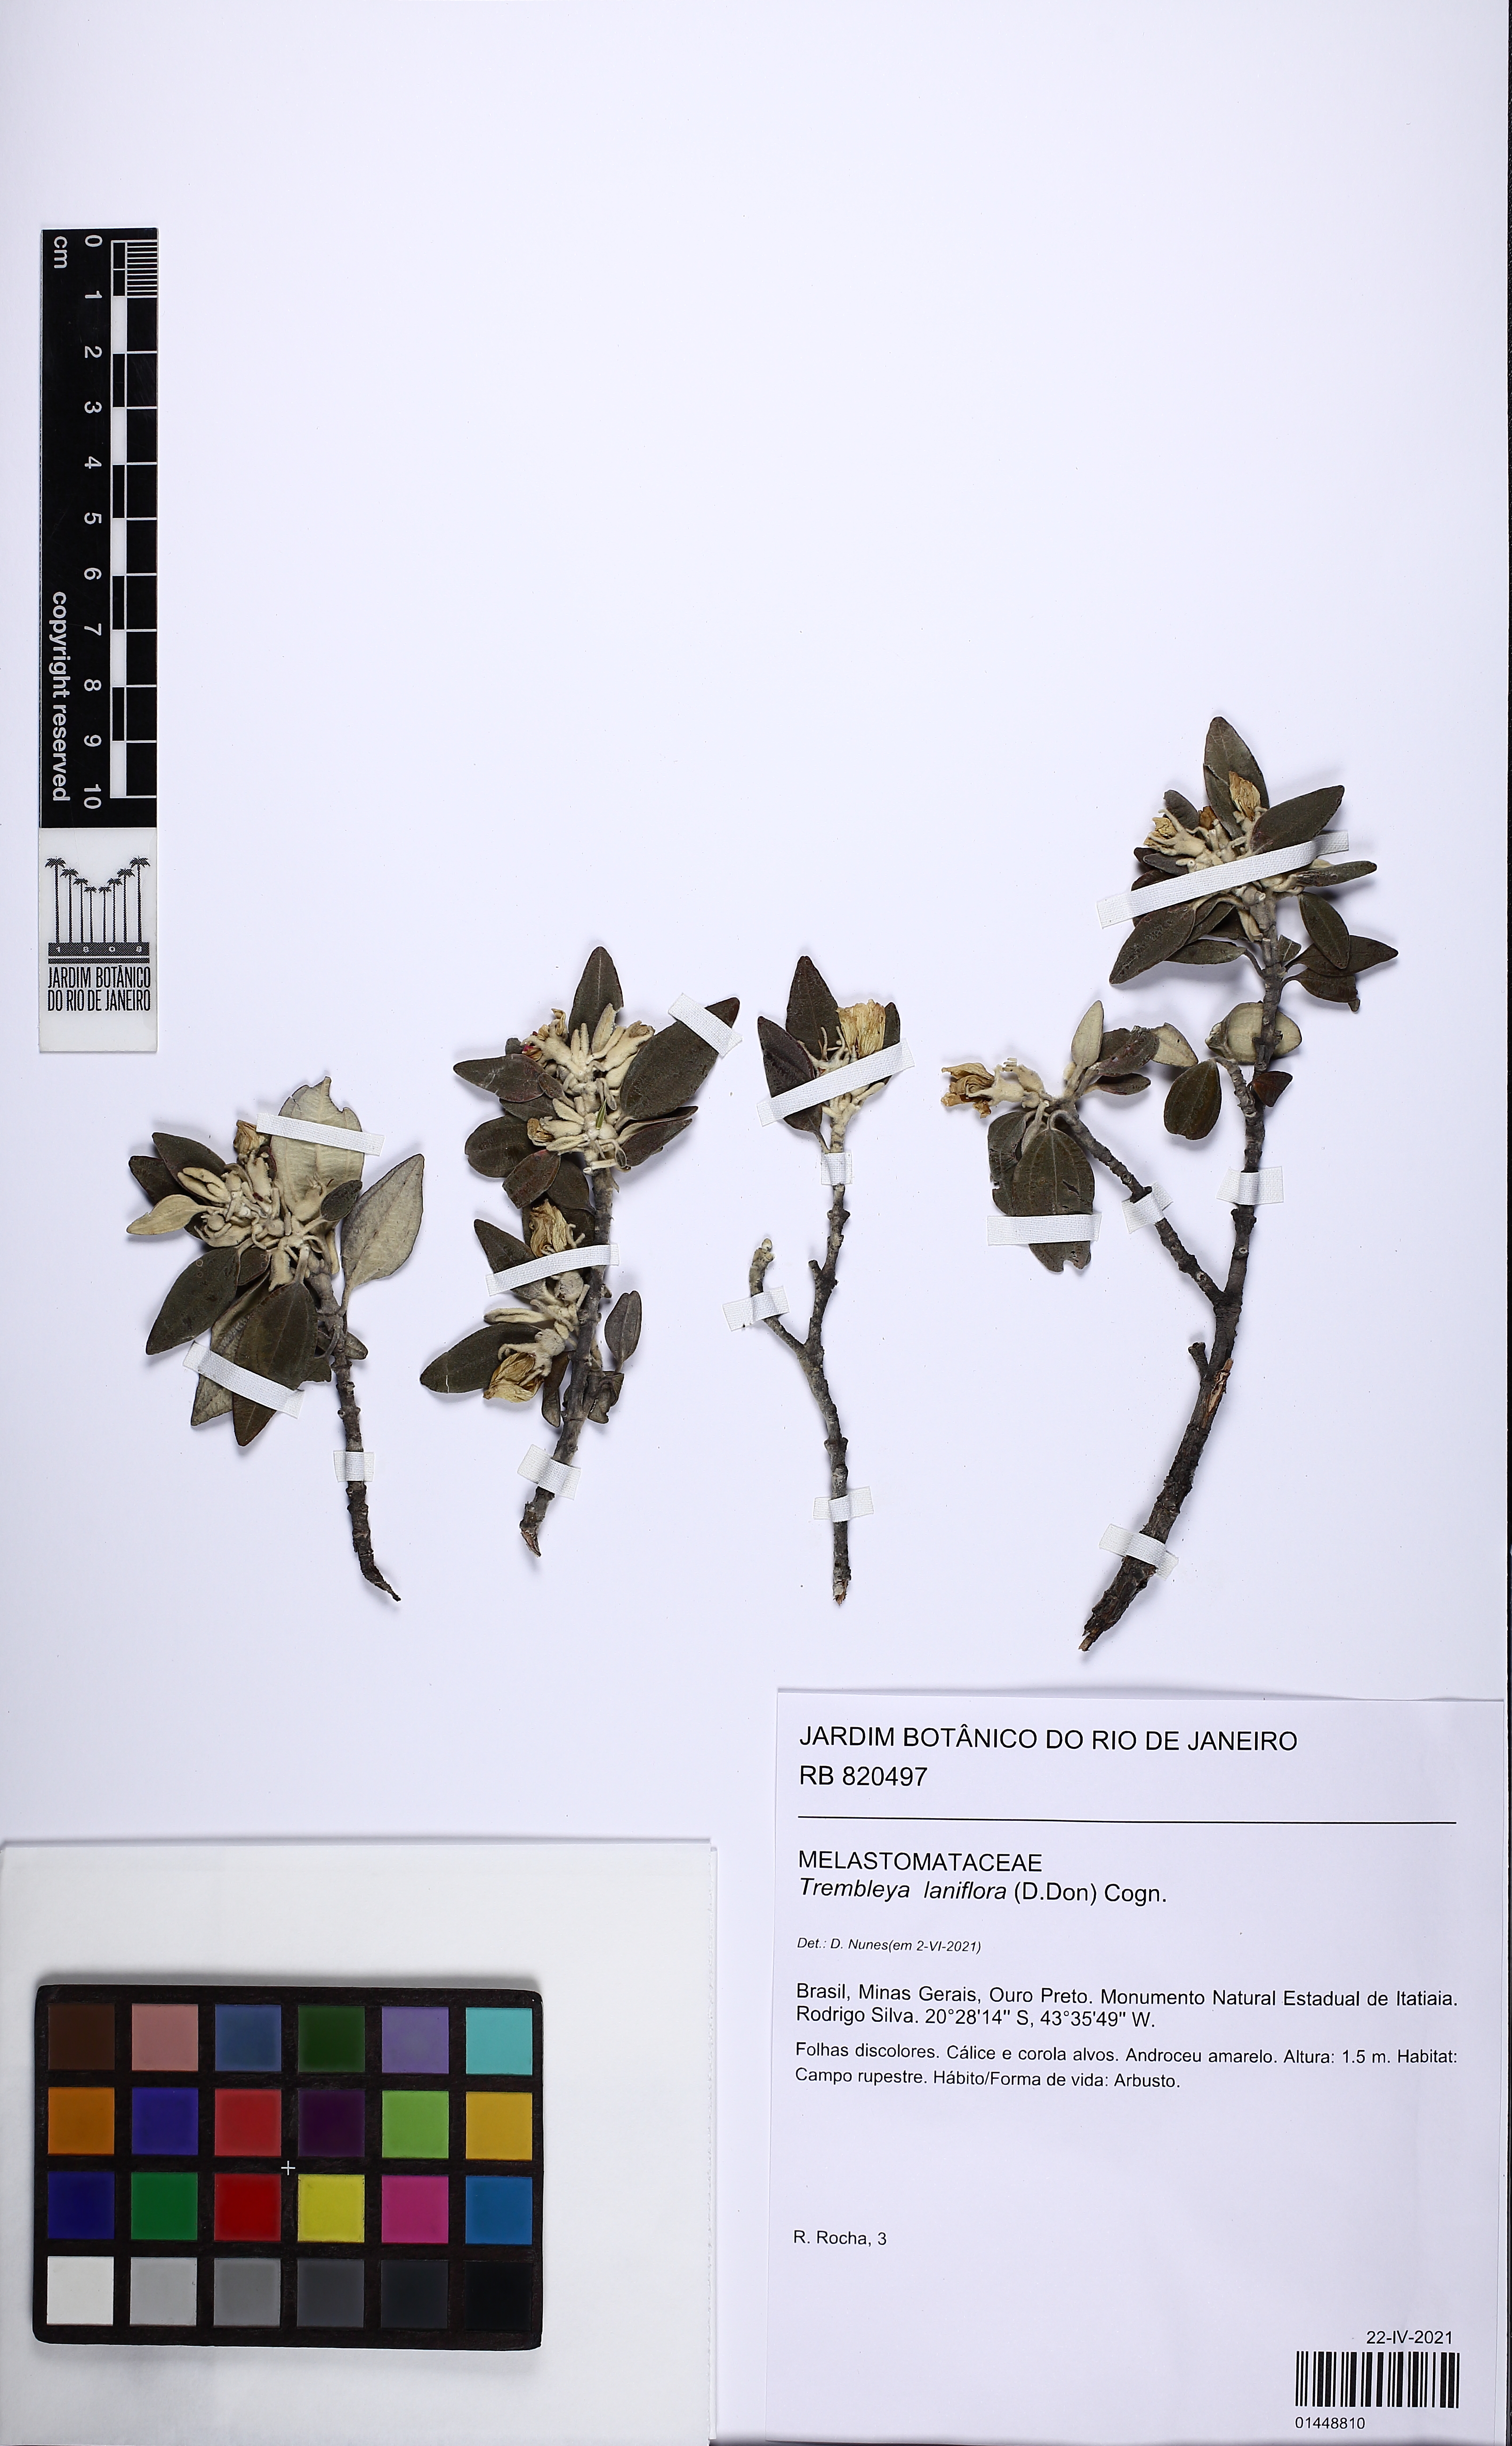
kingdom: Plantae
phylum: Tracheophyta
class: Magnoliopsida
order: Myrtales
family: Melastomataceae
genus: Microlicia
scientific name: Microlicia laniflora
